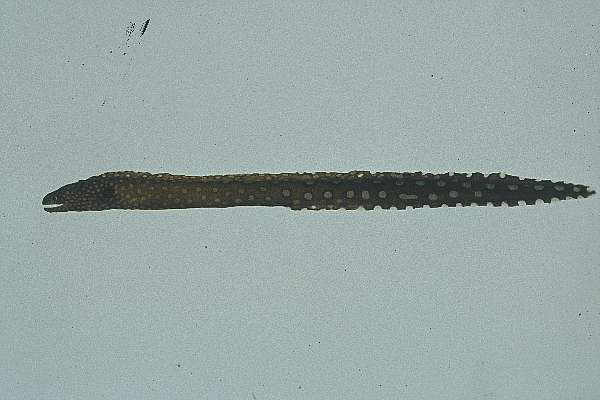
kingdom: Animalia
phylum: Chordata
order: Anguilliformes
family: Muraenidae
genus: Gymnothorax
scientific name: Gymnothorax johnsoni
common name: Whitespotted moray
